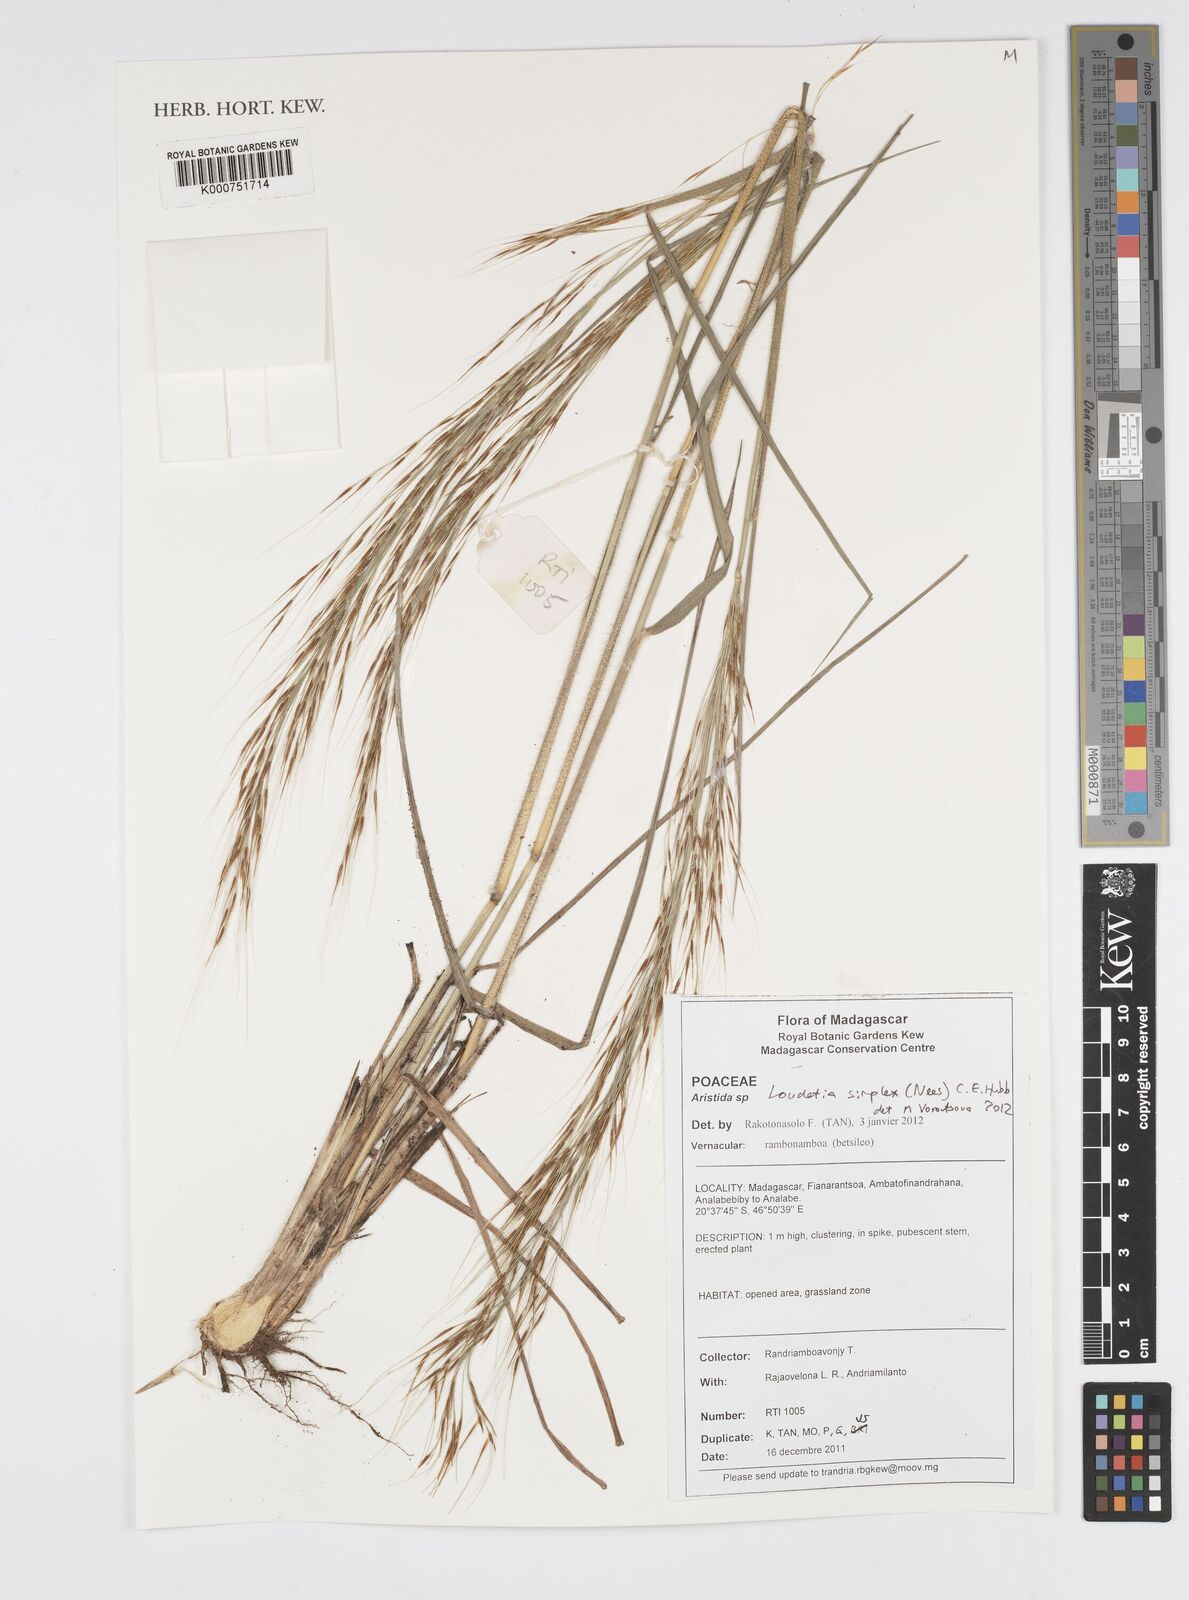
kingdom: Plantae
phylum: Tracheophyta
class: Liliopsida
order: Poales
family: Poaceae
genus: Loudetia
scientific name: Loudetia simplex
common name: Common russet grass
